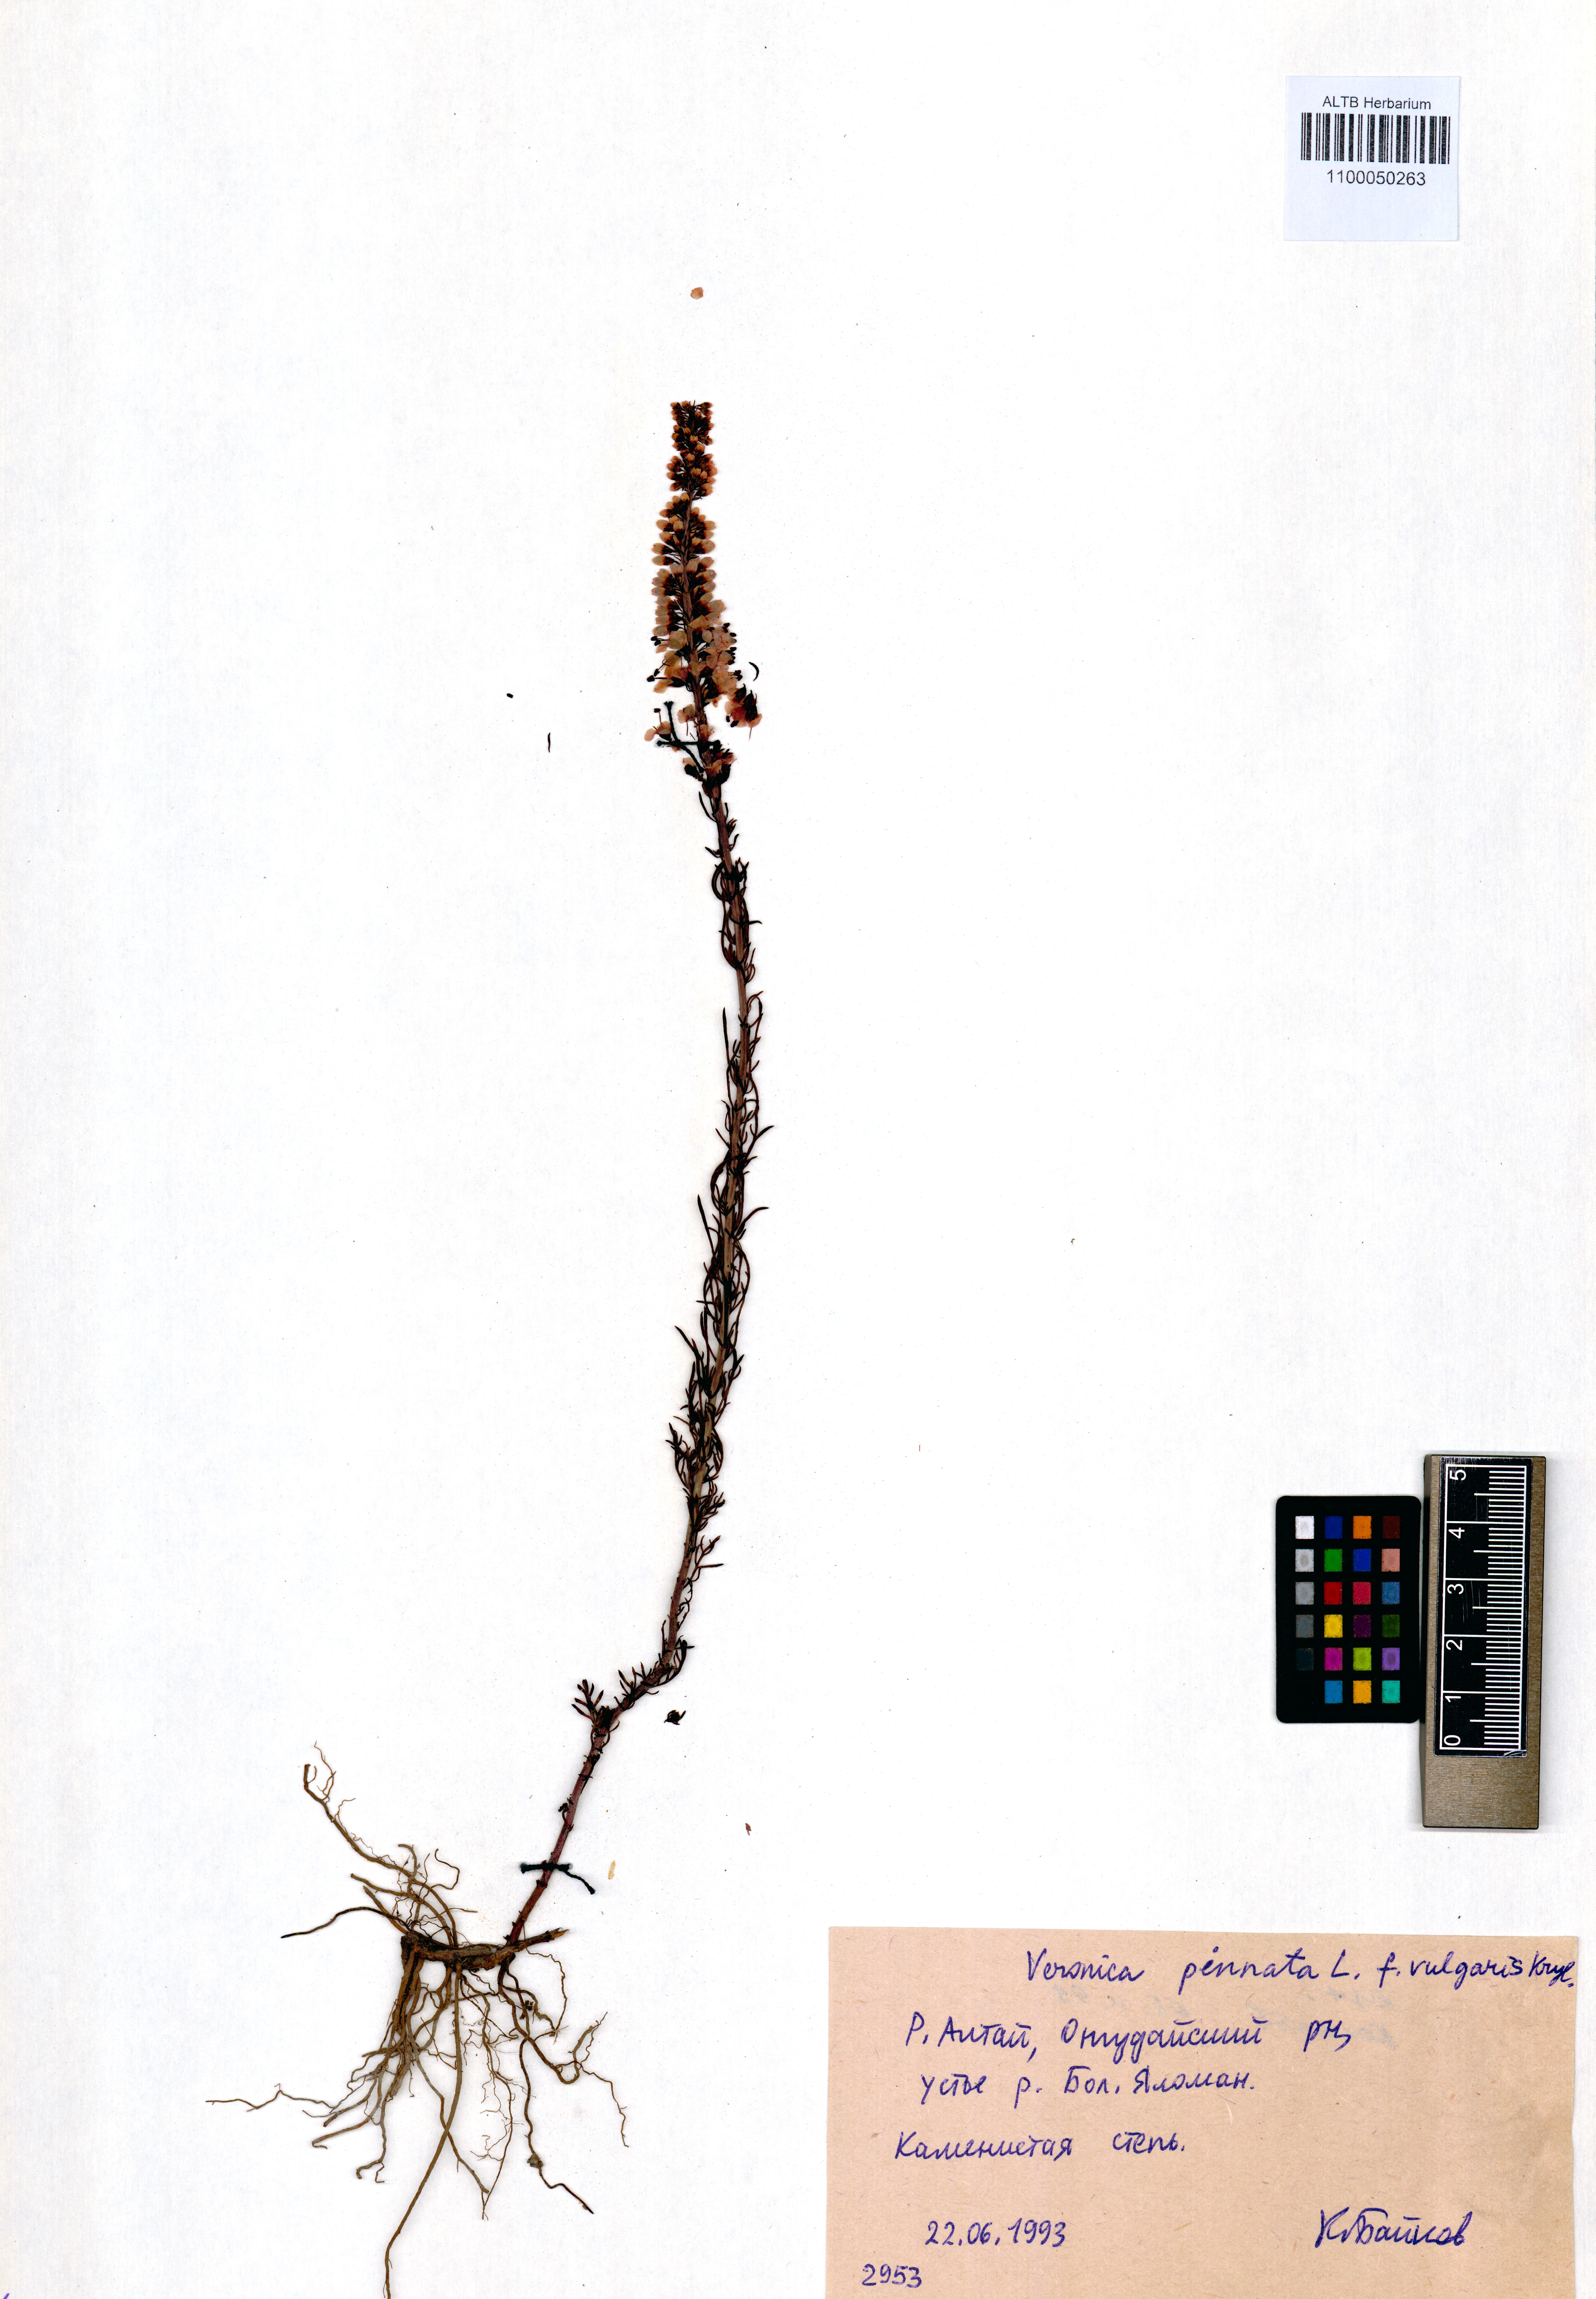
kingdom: Plantae
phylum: Tracheophyta
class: Magnoliopsida
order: Lamiales
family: Plantaginaceae
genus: Veronica
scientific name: Veronica pinnata
